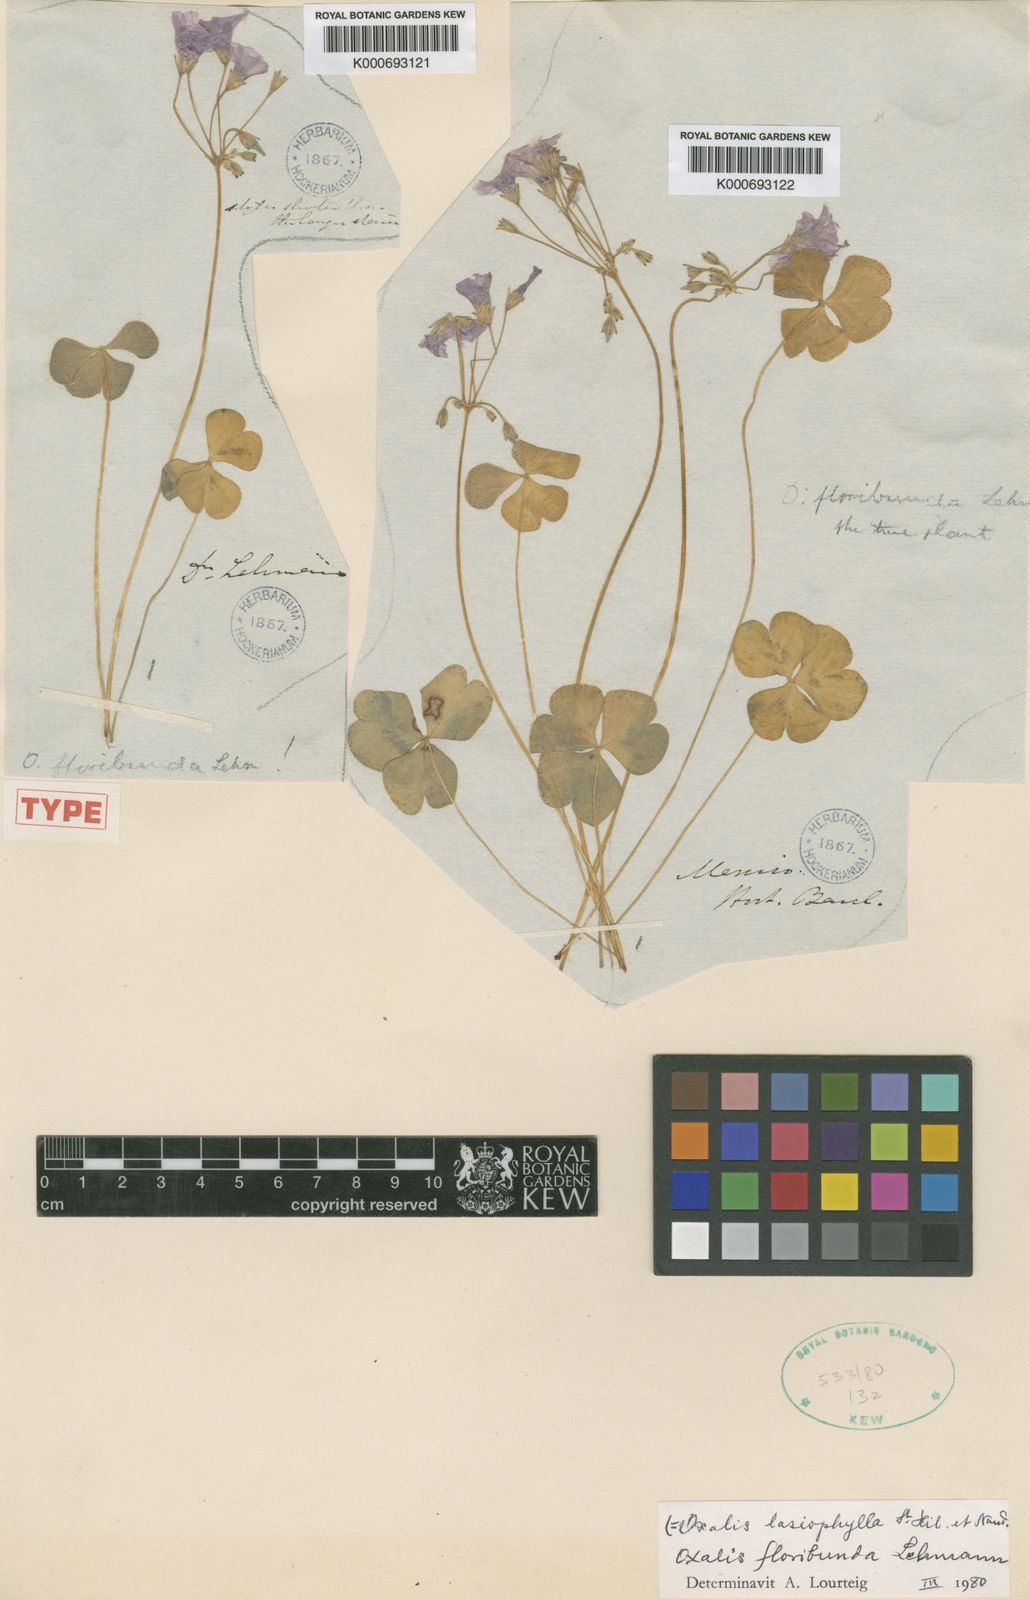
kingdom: Plantae
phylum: Tracheophyta
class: Magnoliopsida
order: Oxalidales
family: Oxalidaceae
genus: Oxalis
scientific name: Oxalis floribunda
